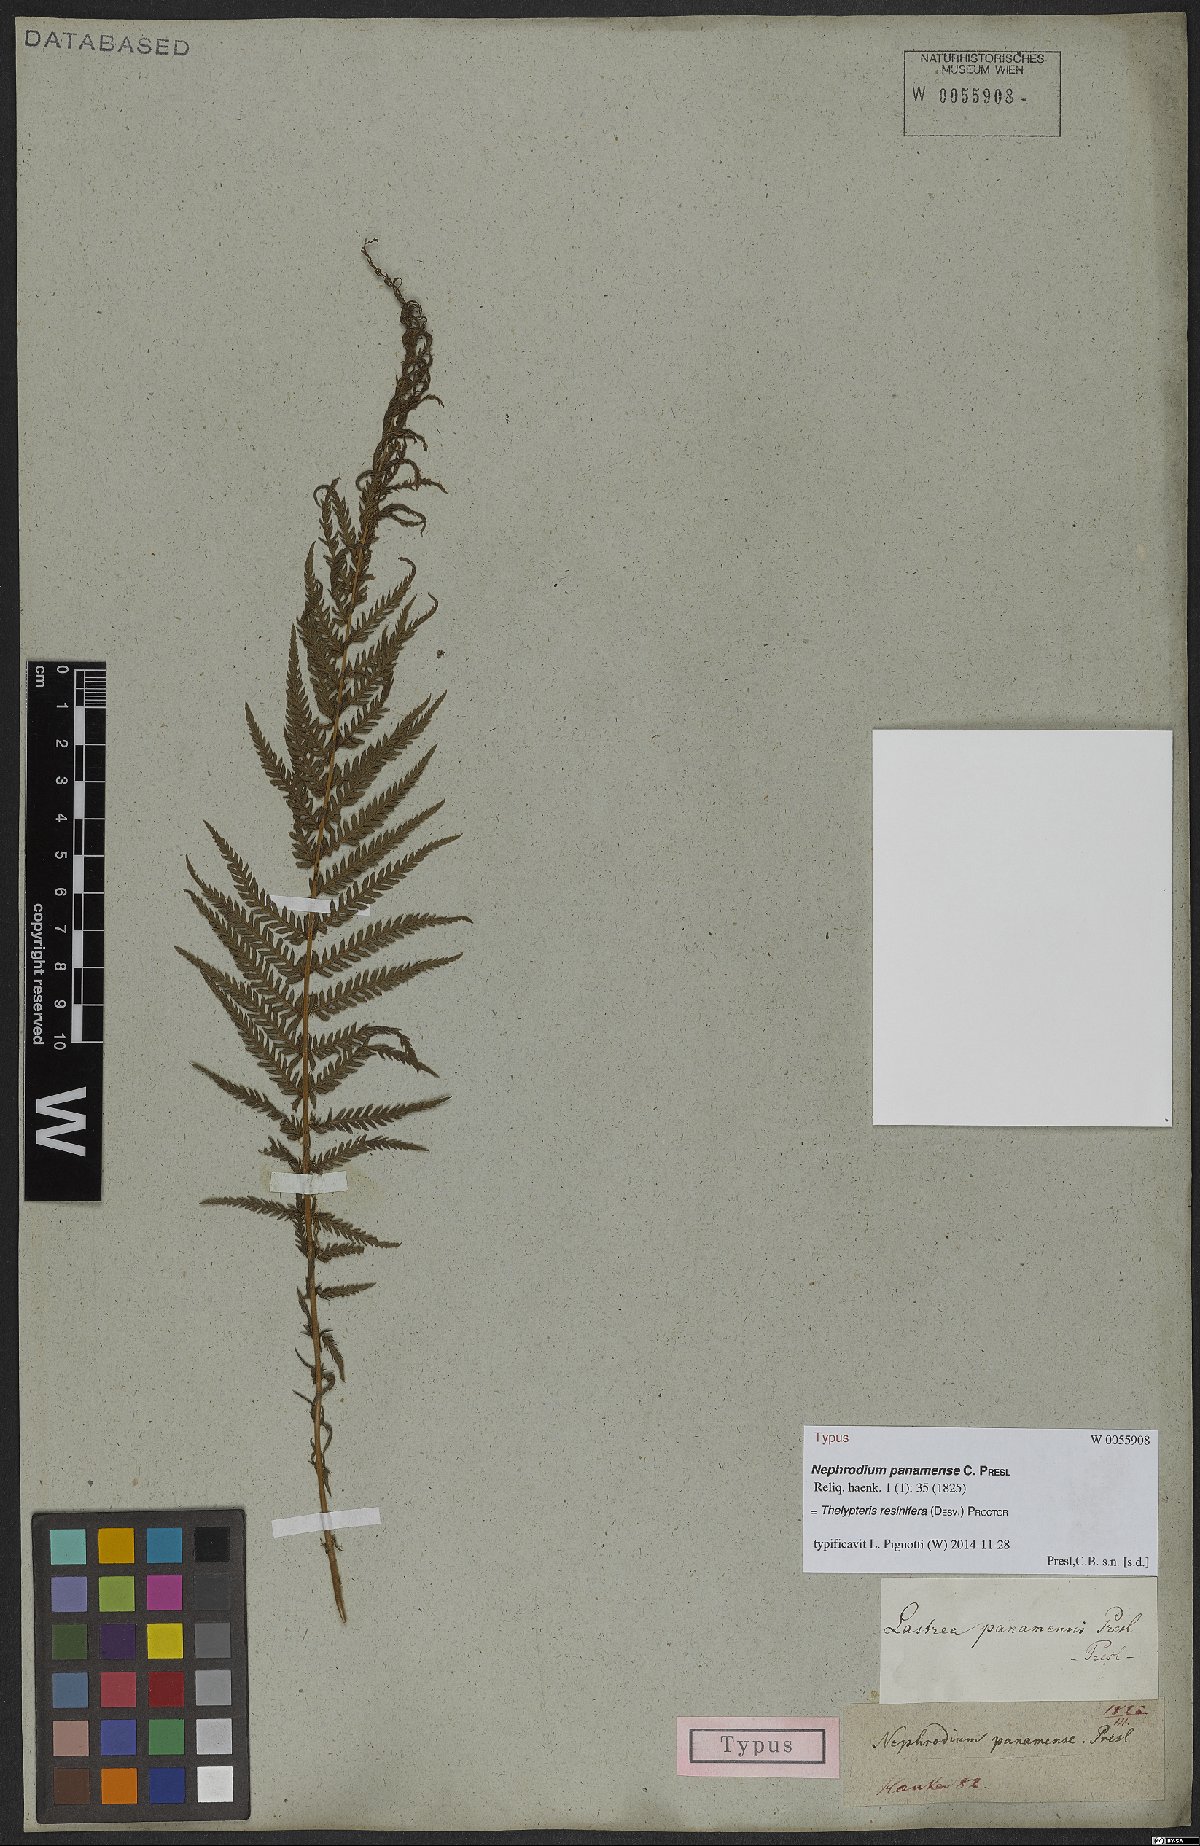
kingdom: Plantae
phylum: Tracheophyta
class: Polypodiopsida
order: Polypodiales
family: Thelypteridaceae
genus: Amauropelta
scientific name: Amauropelta resinifera
